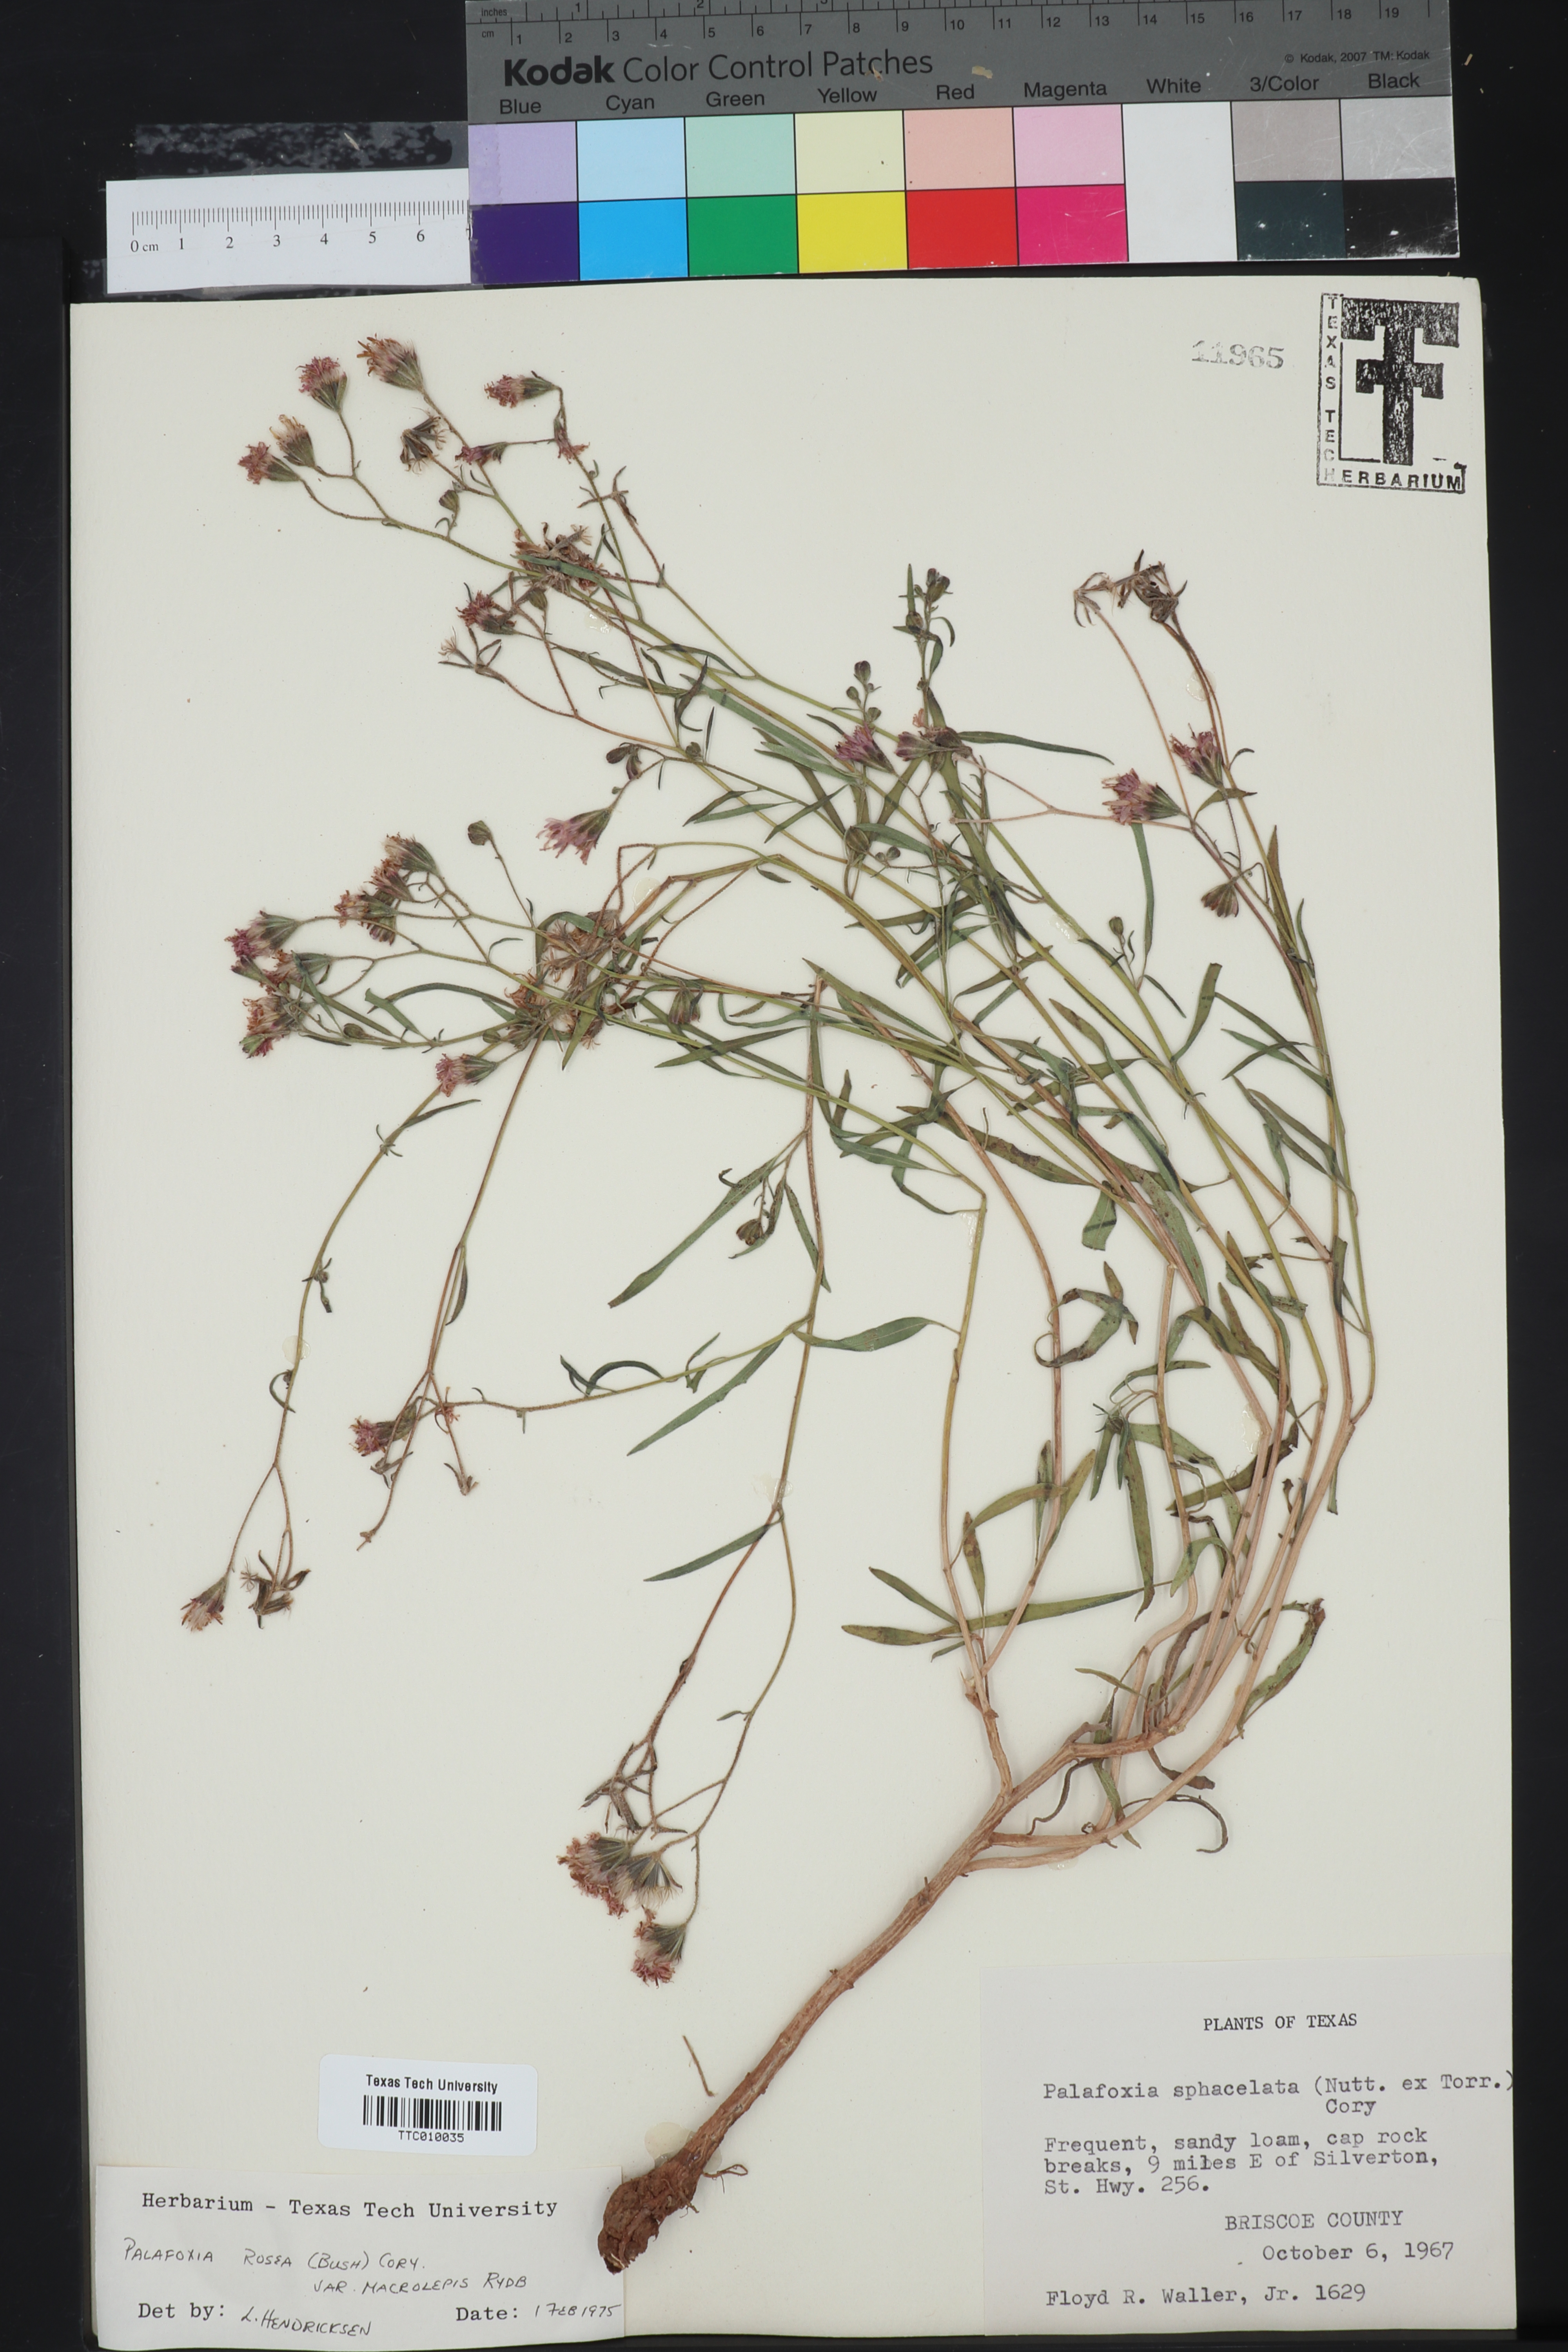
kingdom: Plantae
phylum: Tracheophyta
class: Magnoliopsida
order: Asterales
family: Asteraceae
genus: Palafoxia
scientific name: Palafoxia rosea
